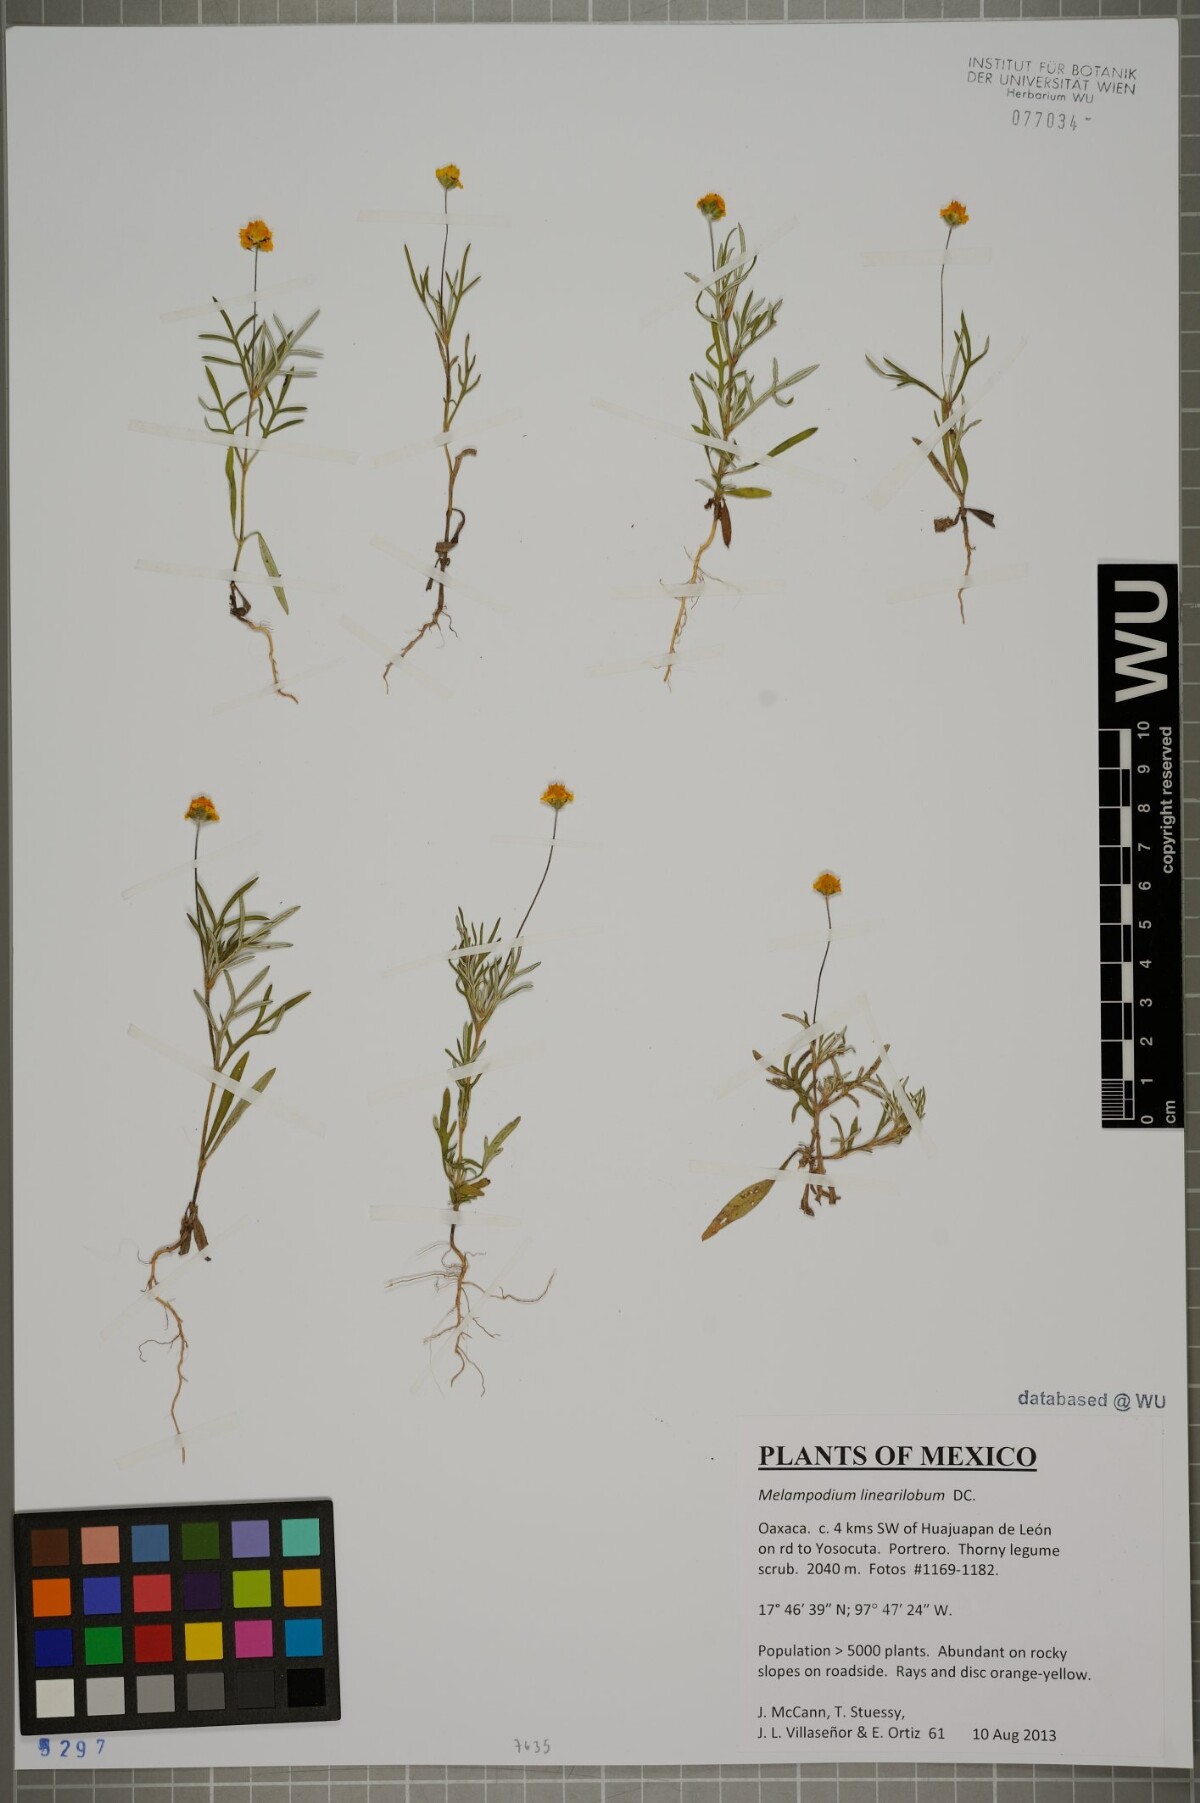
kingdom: Plantae
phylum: Tracheophyta
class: Magnoliopsida
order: Asterales
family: Asteraceae
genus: Melampodium
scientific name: Melampodium linearilobum
